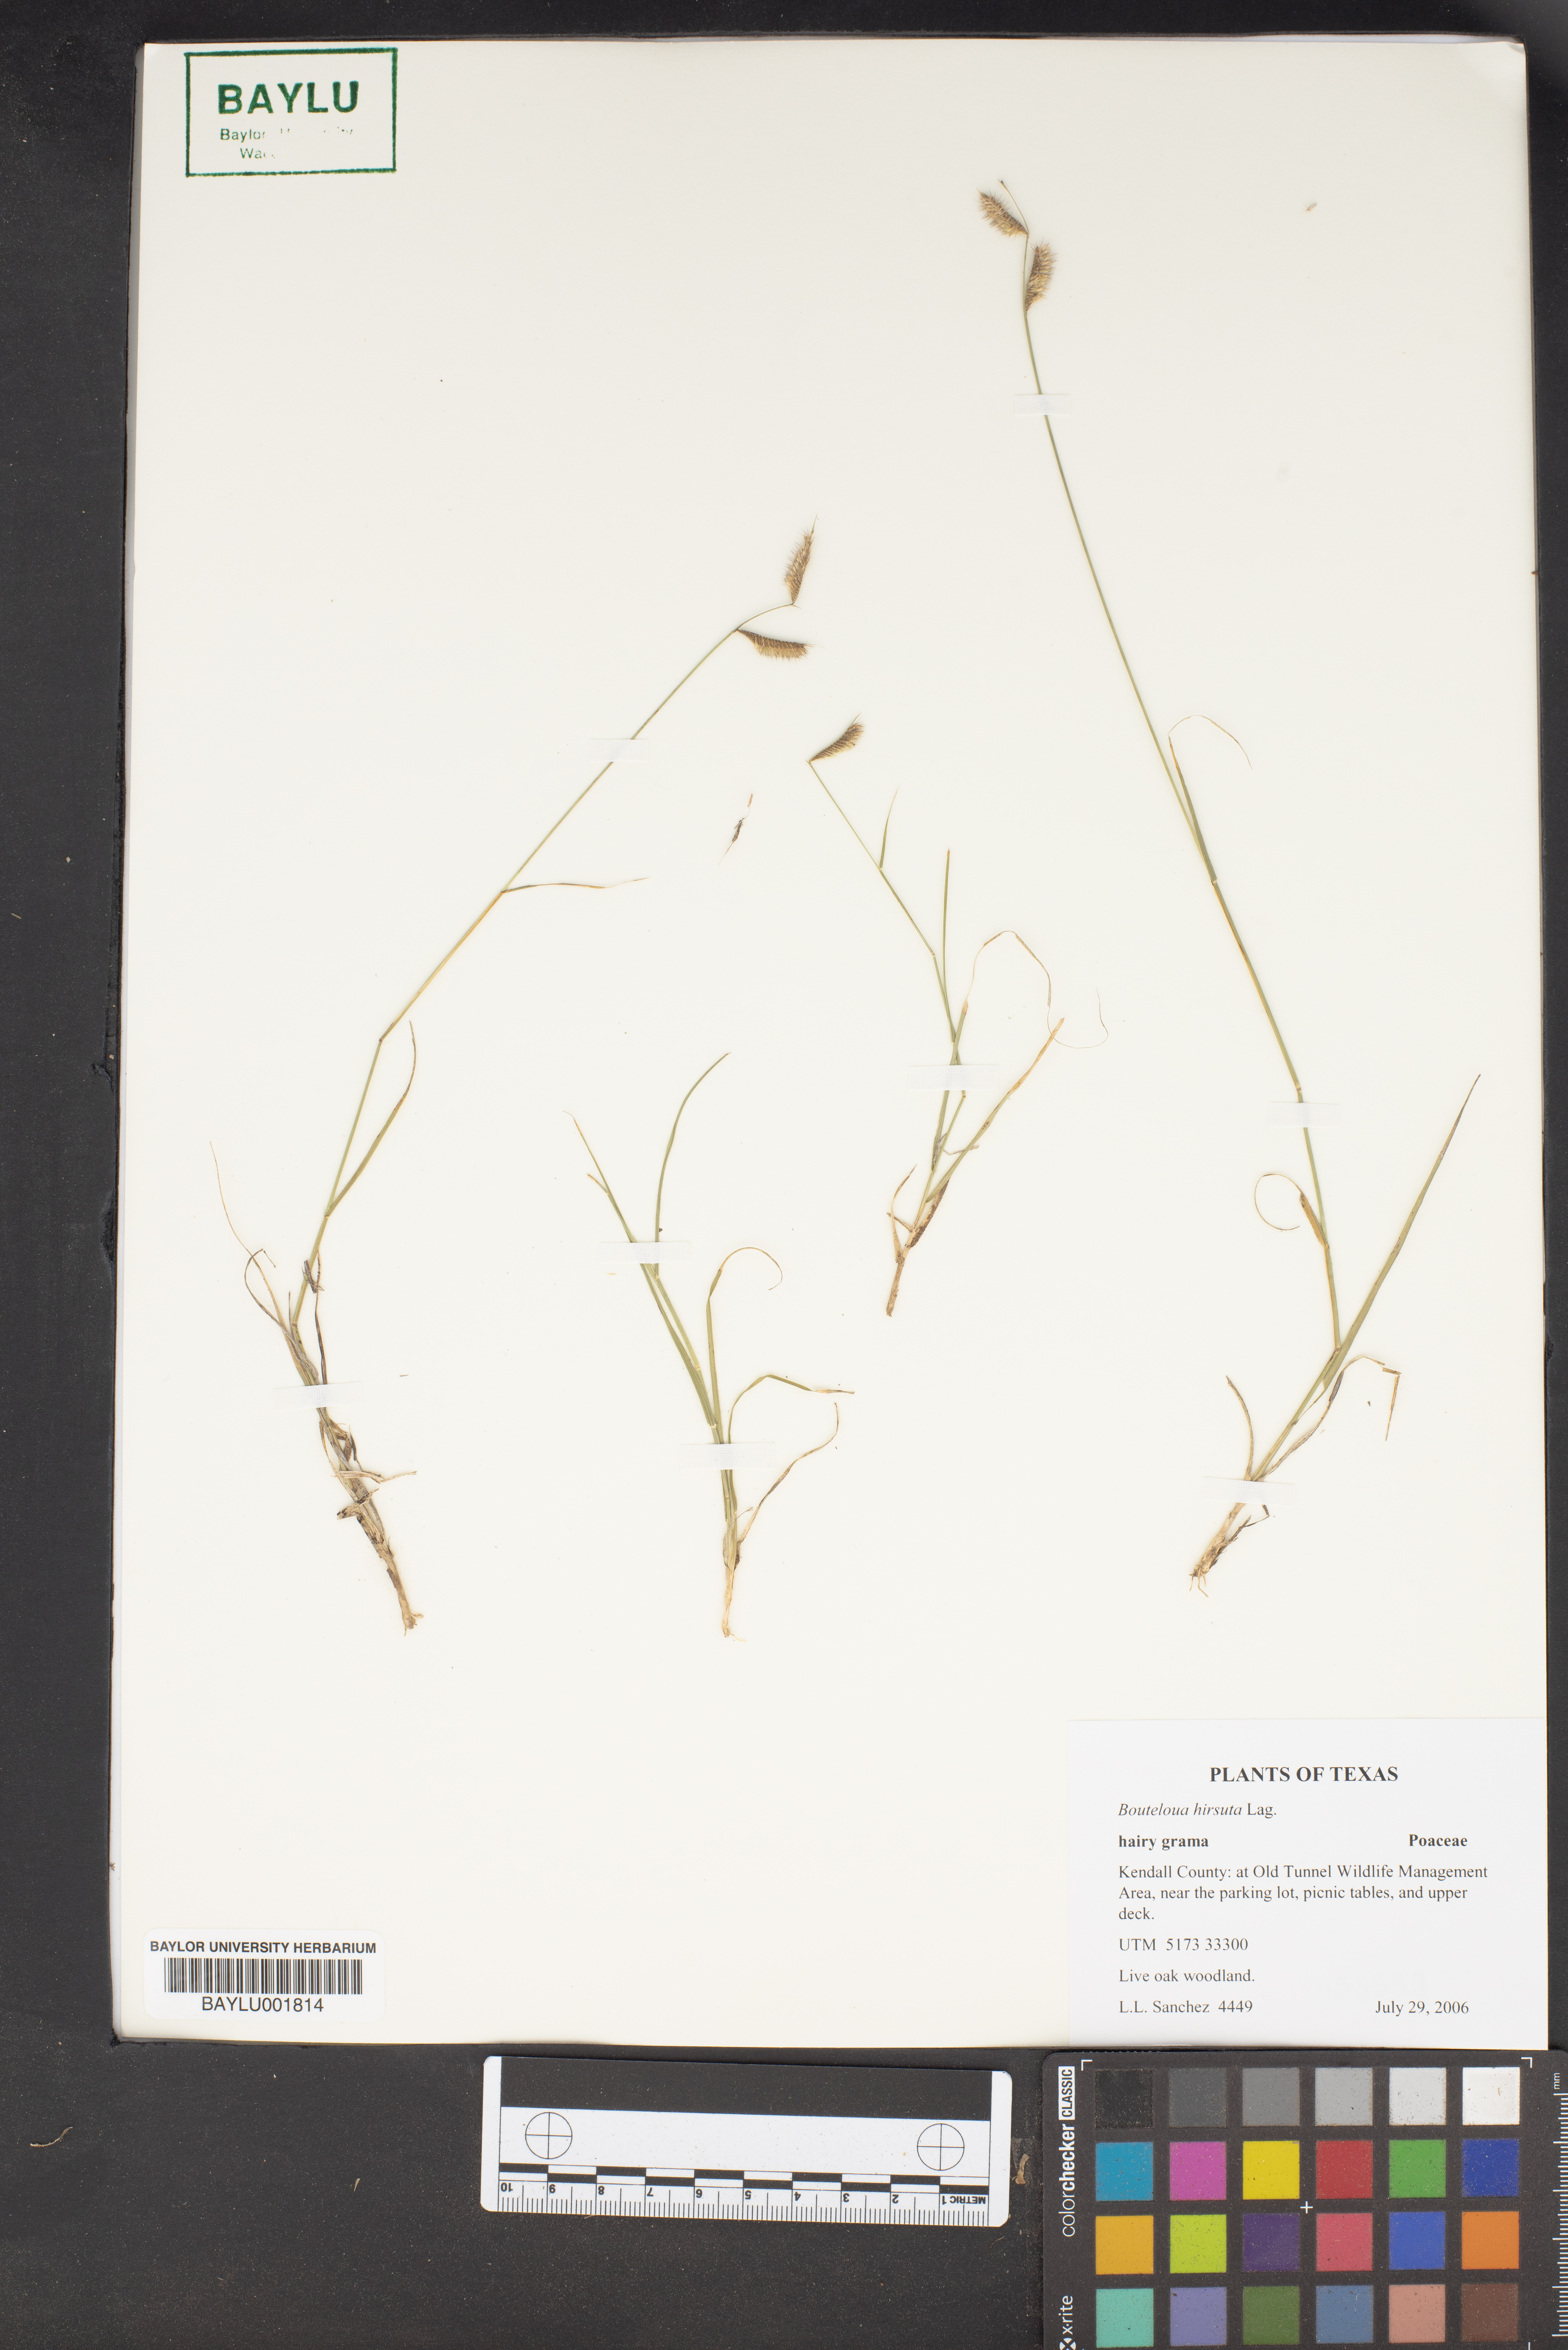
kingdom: Plantae
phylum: Tracheophyta
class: Liliopsida
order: Poales
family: Poaceae
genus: Bouteloua
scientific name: Bouteloua hirsuta
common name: Hairy grama
